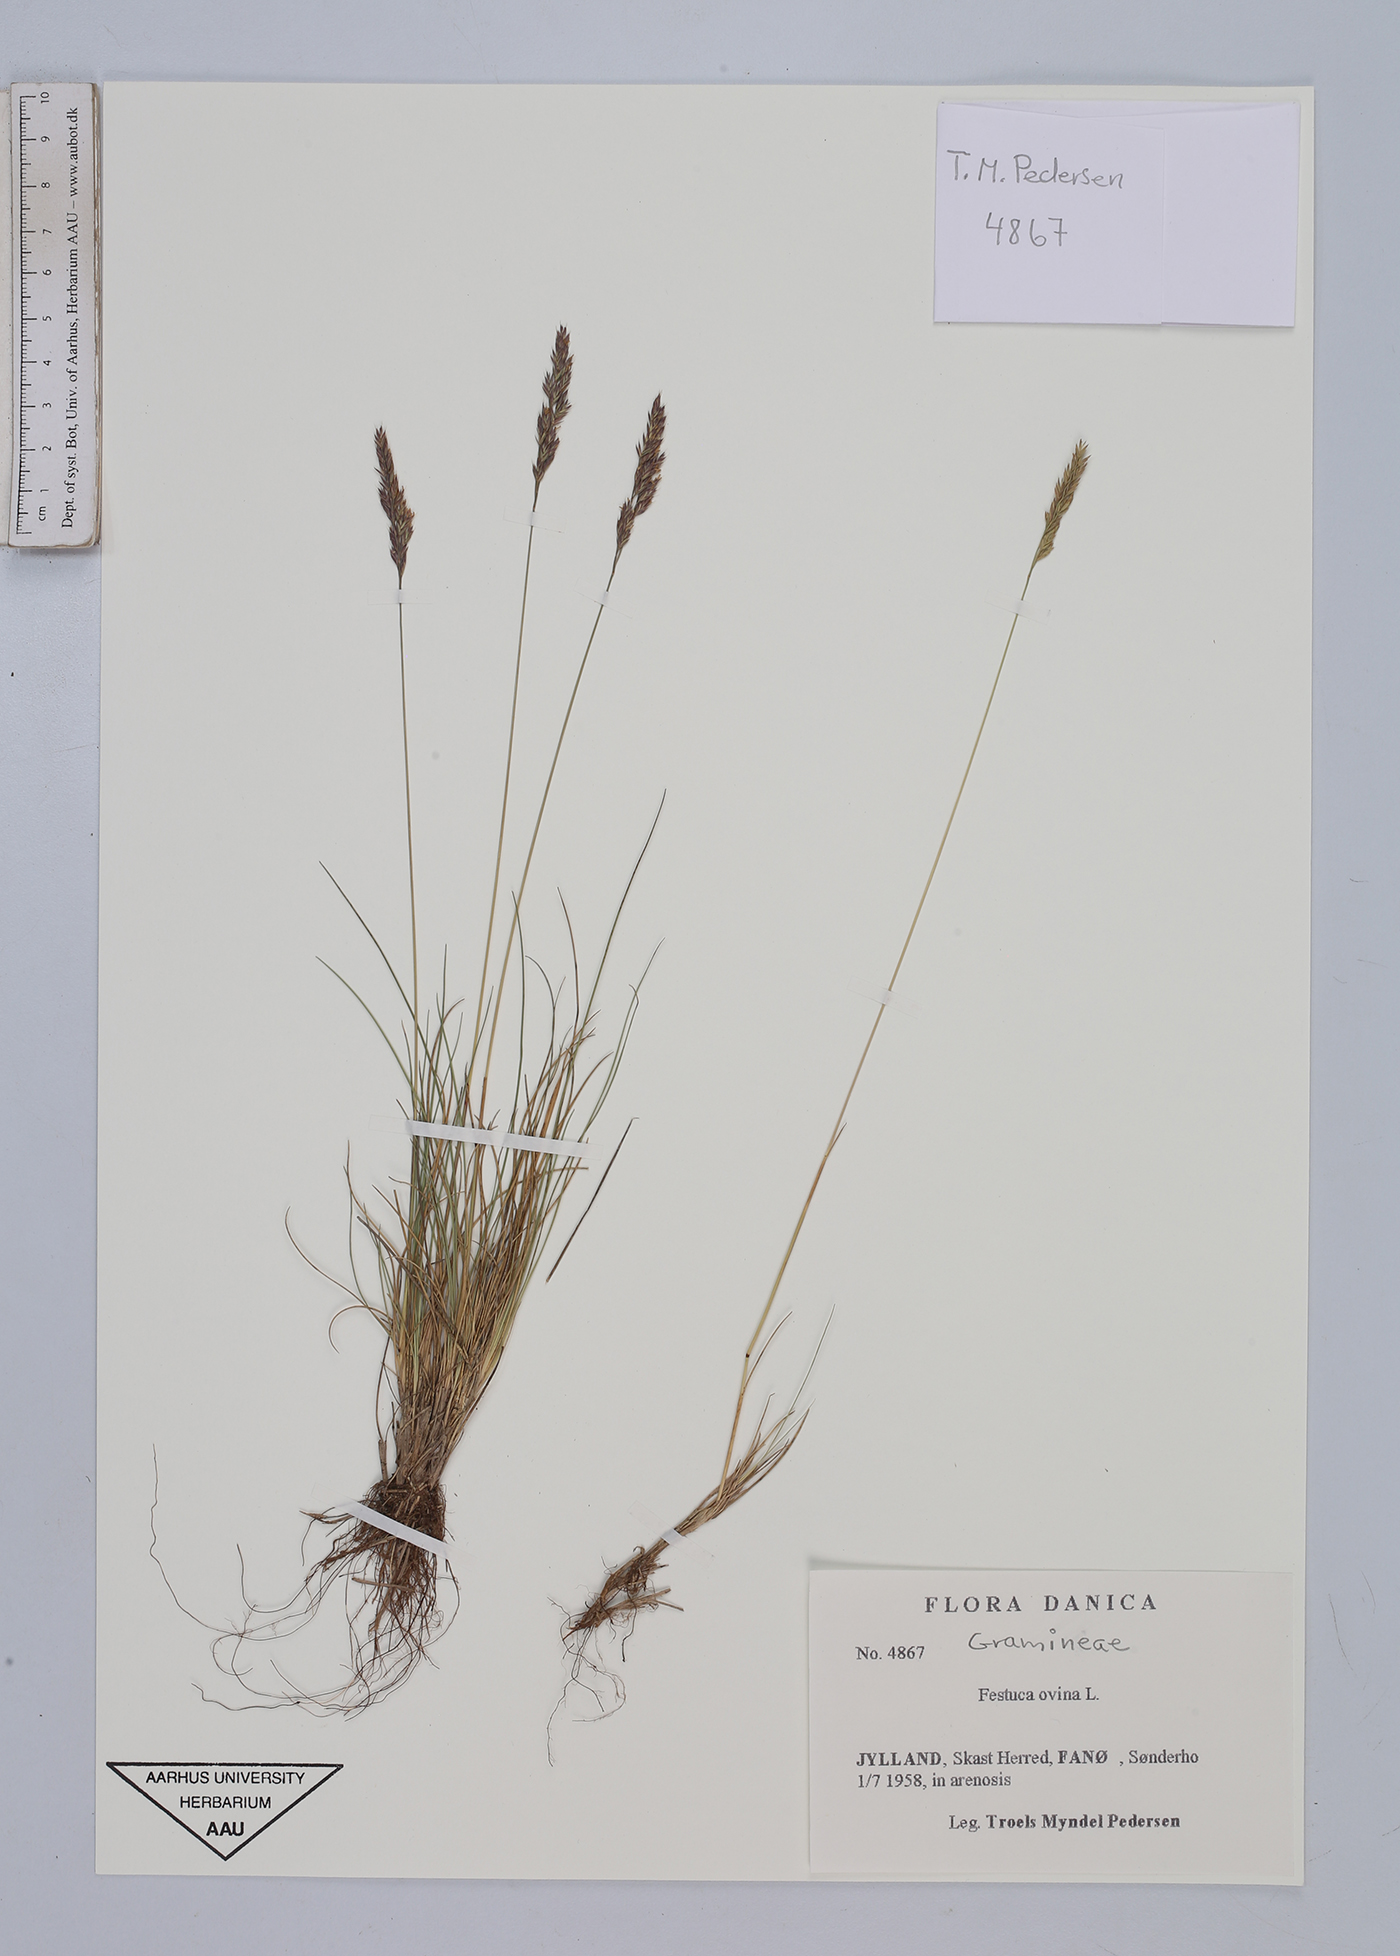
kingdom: Plantae
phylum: Tracheophyta
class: Liliopsida
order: Poales
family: Poaceae
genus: Festuca
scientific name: Festuca ovina
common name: Sheep fescue
